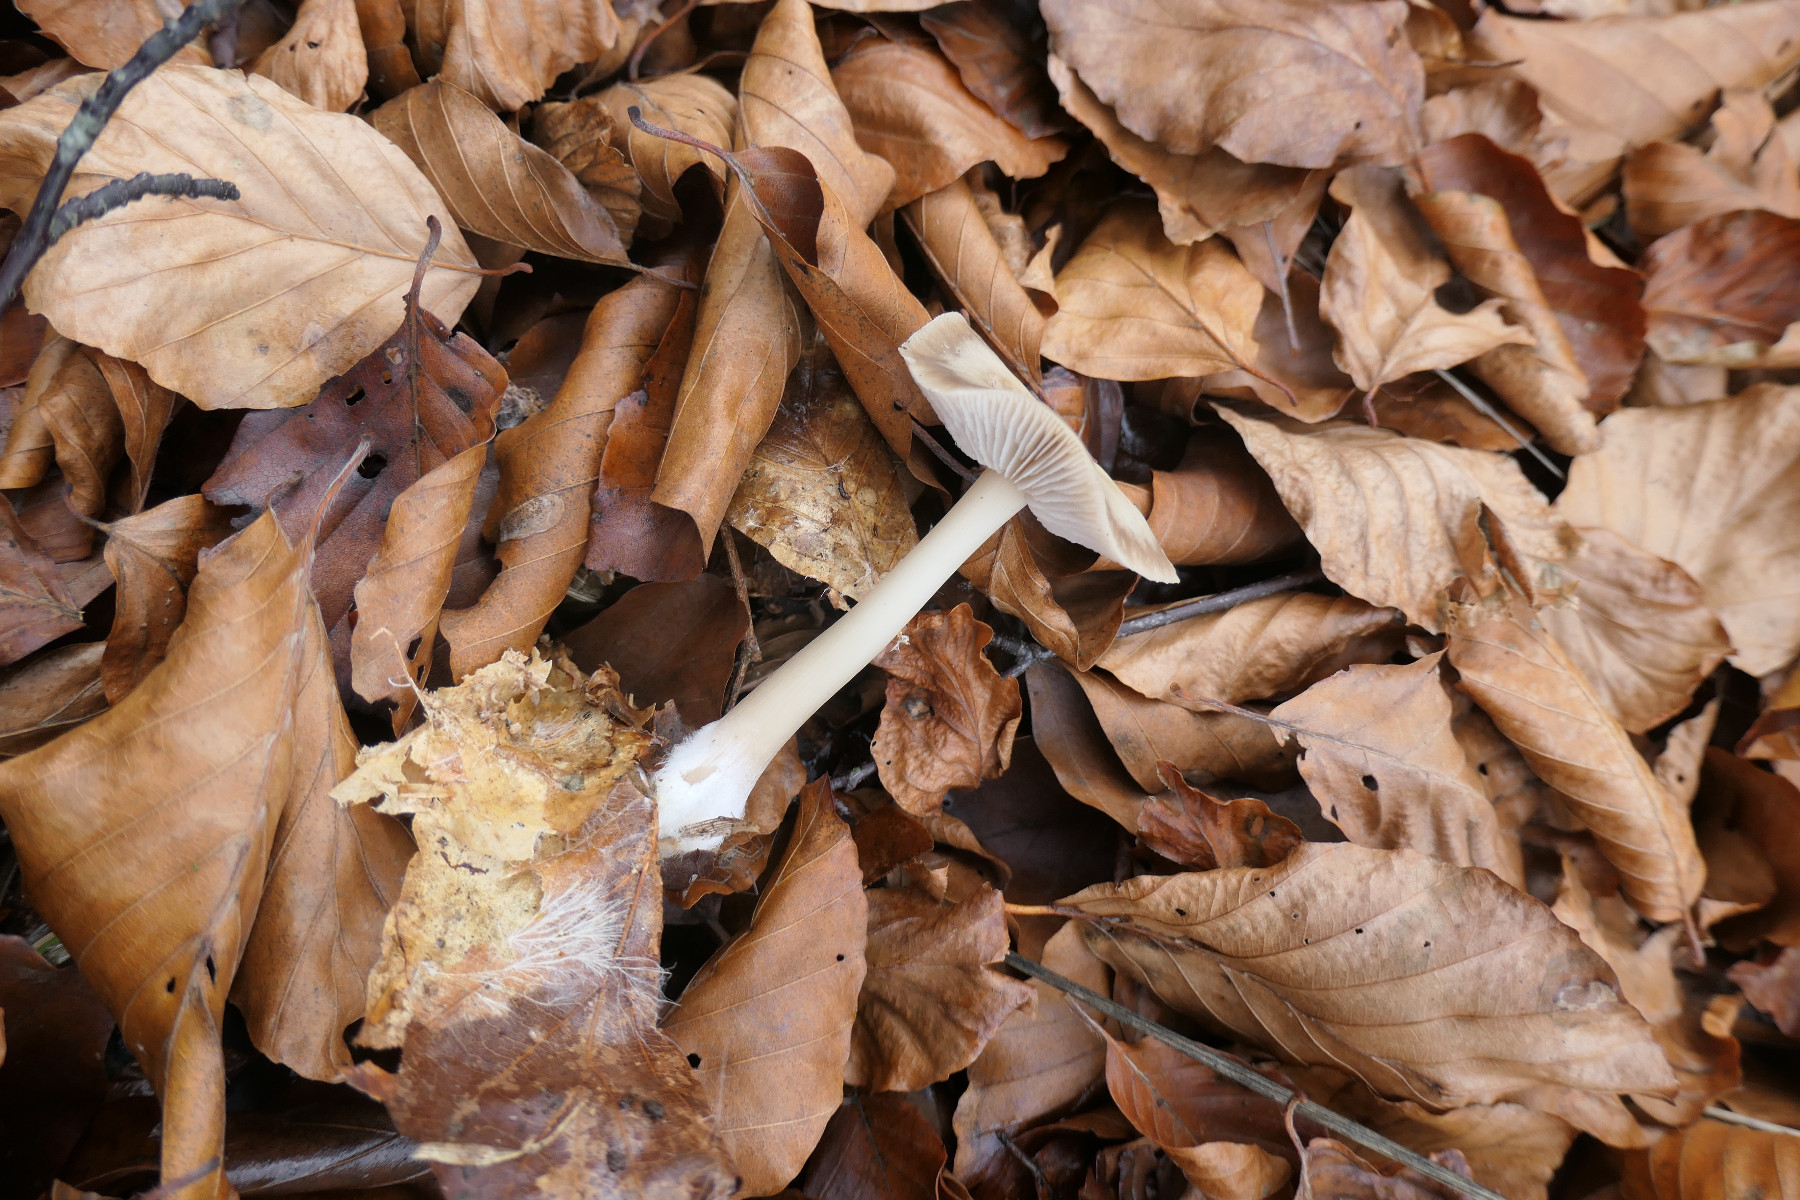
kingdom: Fungi
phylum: Basidiomycota
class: Agaricomycetes
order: Agaricales
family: Omphalotaceae
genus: Rhodocollybia
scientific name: Rhodocollybia asema
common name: horngrå fladhat
